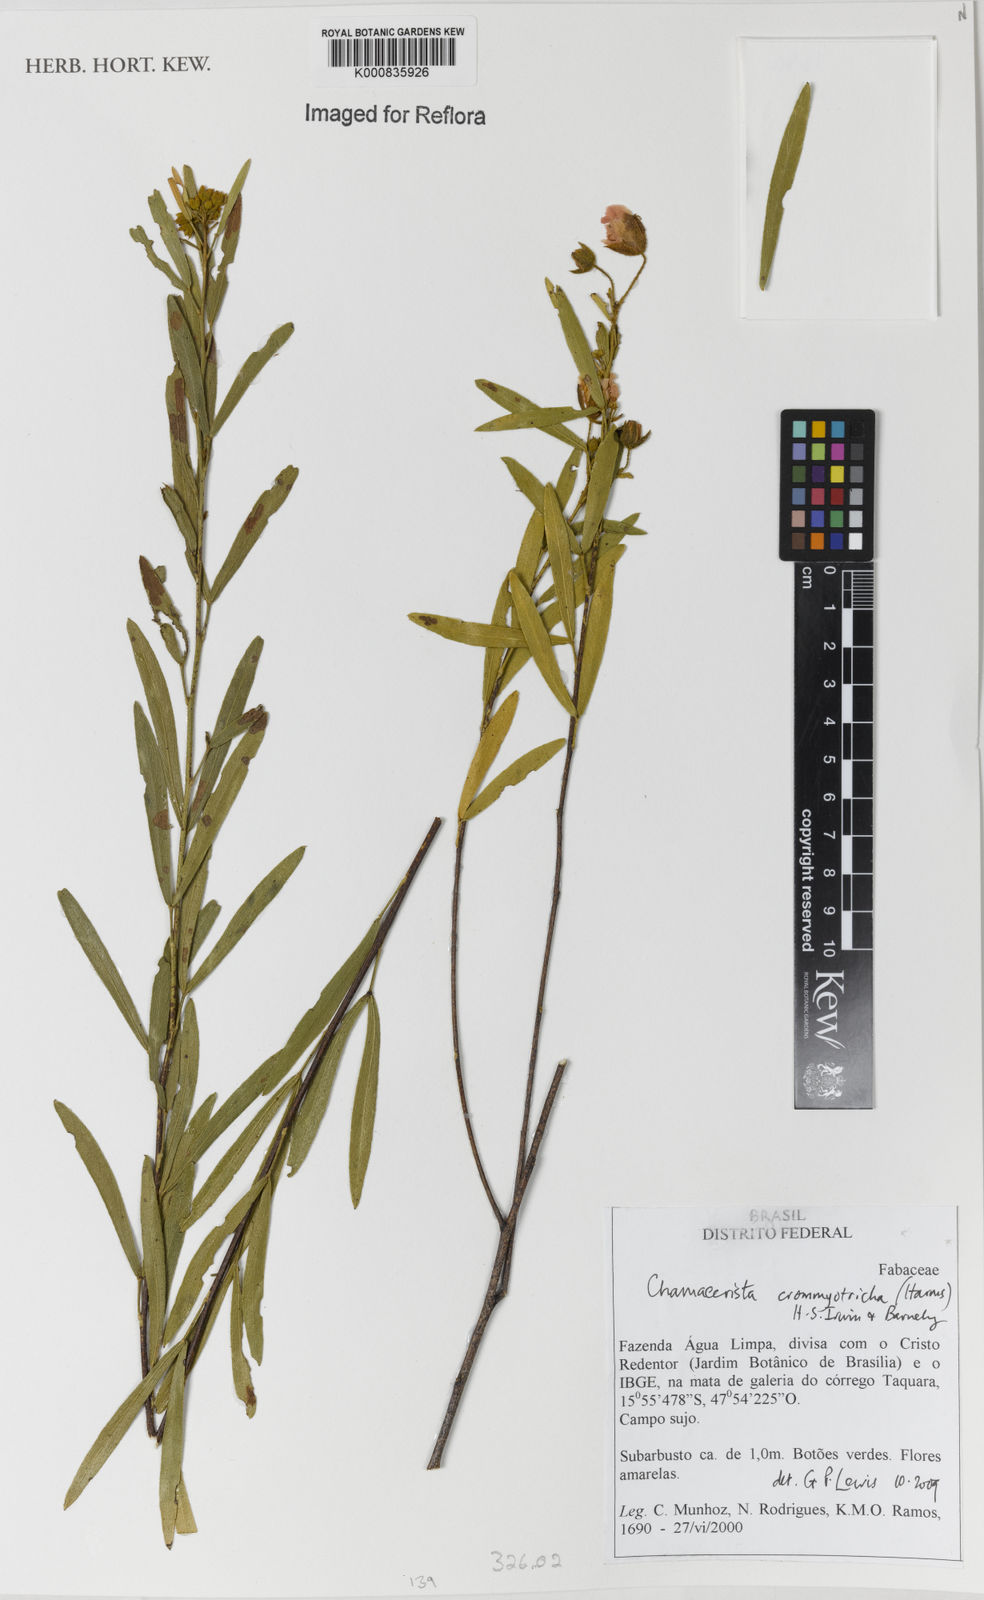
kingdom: Plantae
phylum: Tracheophyta
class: Magnoliopsida
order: Fabales
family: Fabaceae
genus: Chamaecrista
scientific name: Chamaecrista crommyotricha
